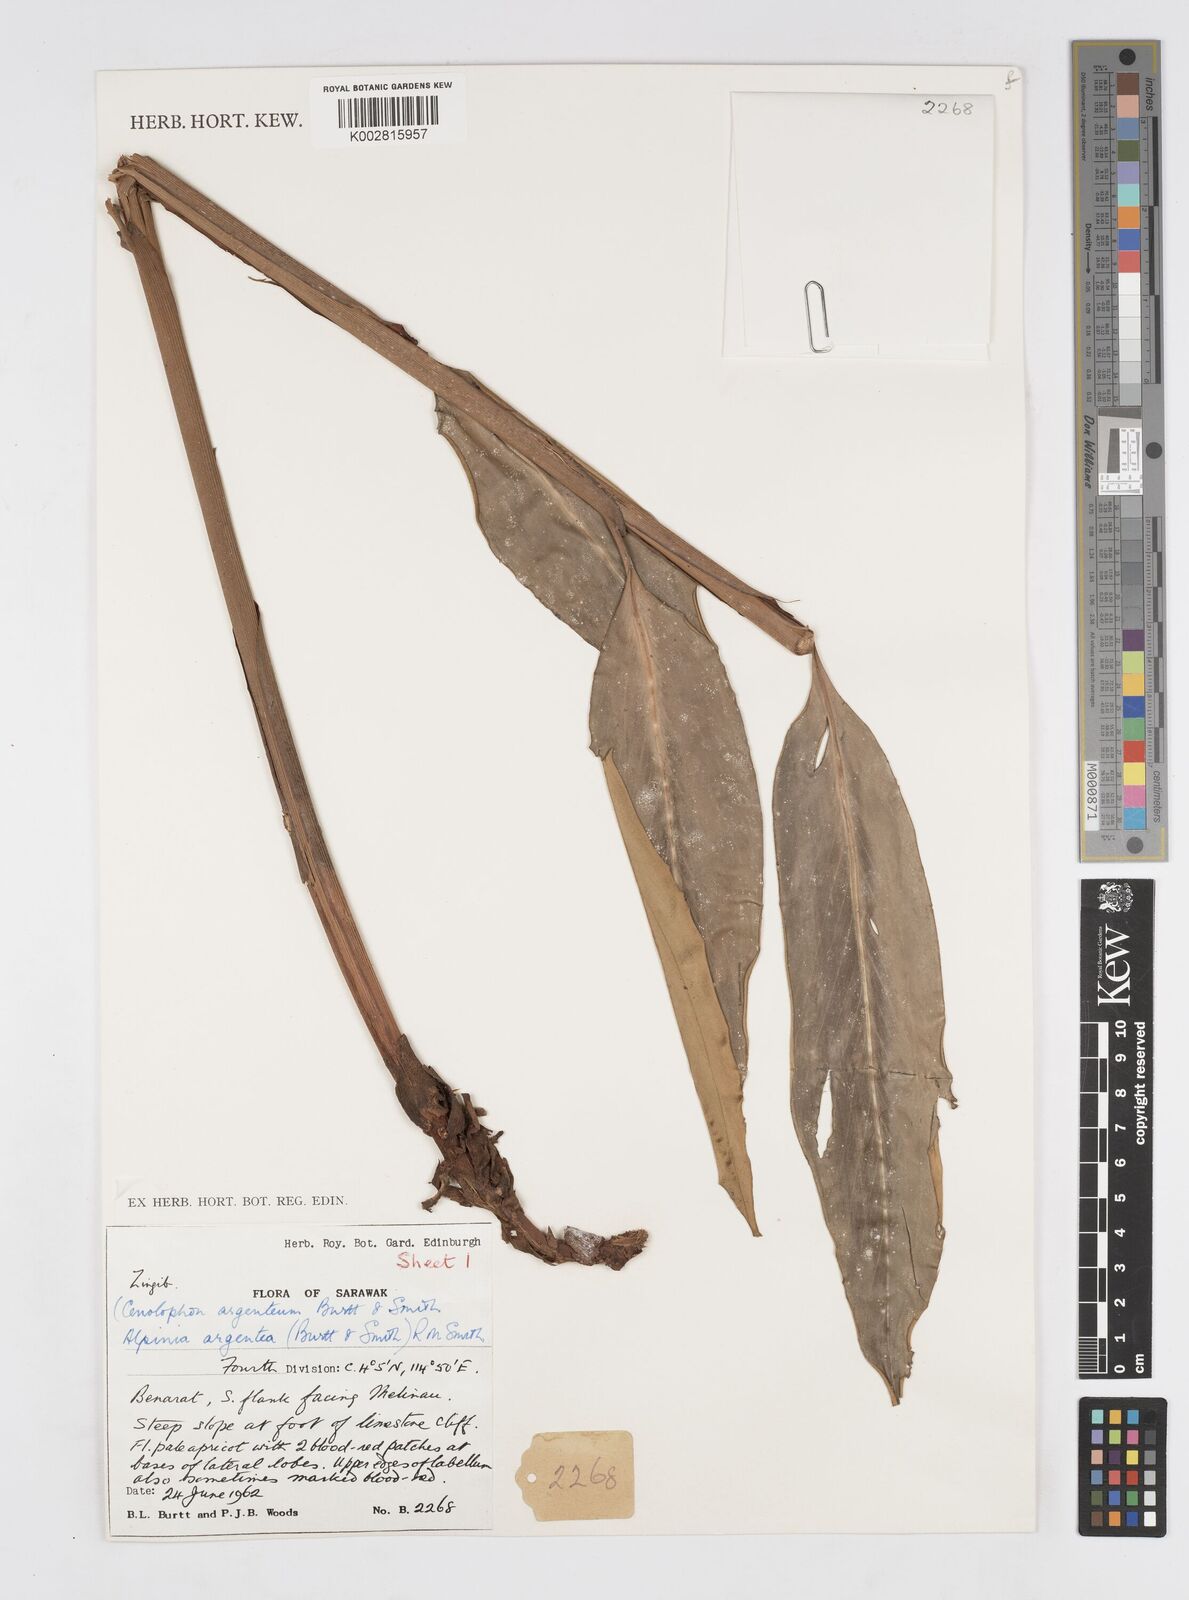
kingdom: Plantae
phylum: Tracheophyta
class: Liliopsida
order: Zingiberales
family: Zingiberaceae
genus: Alpinia
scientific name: Alpinia argentea
